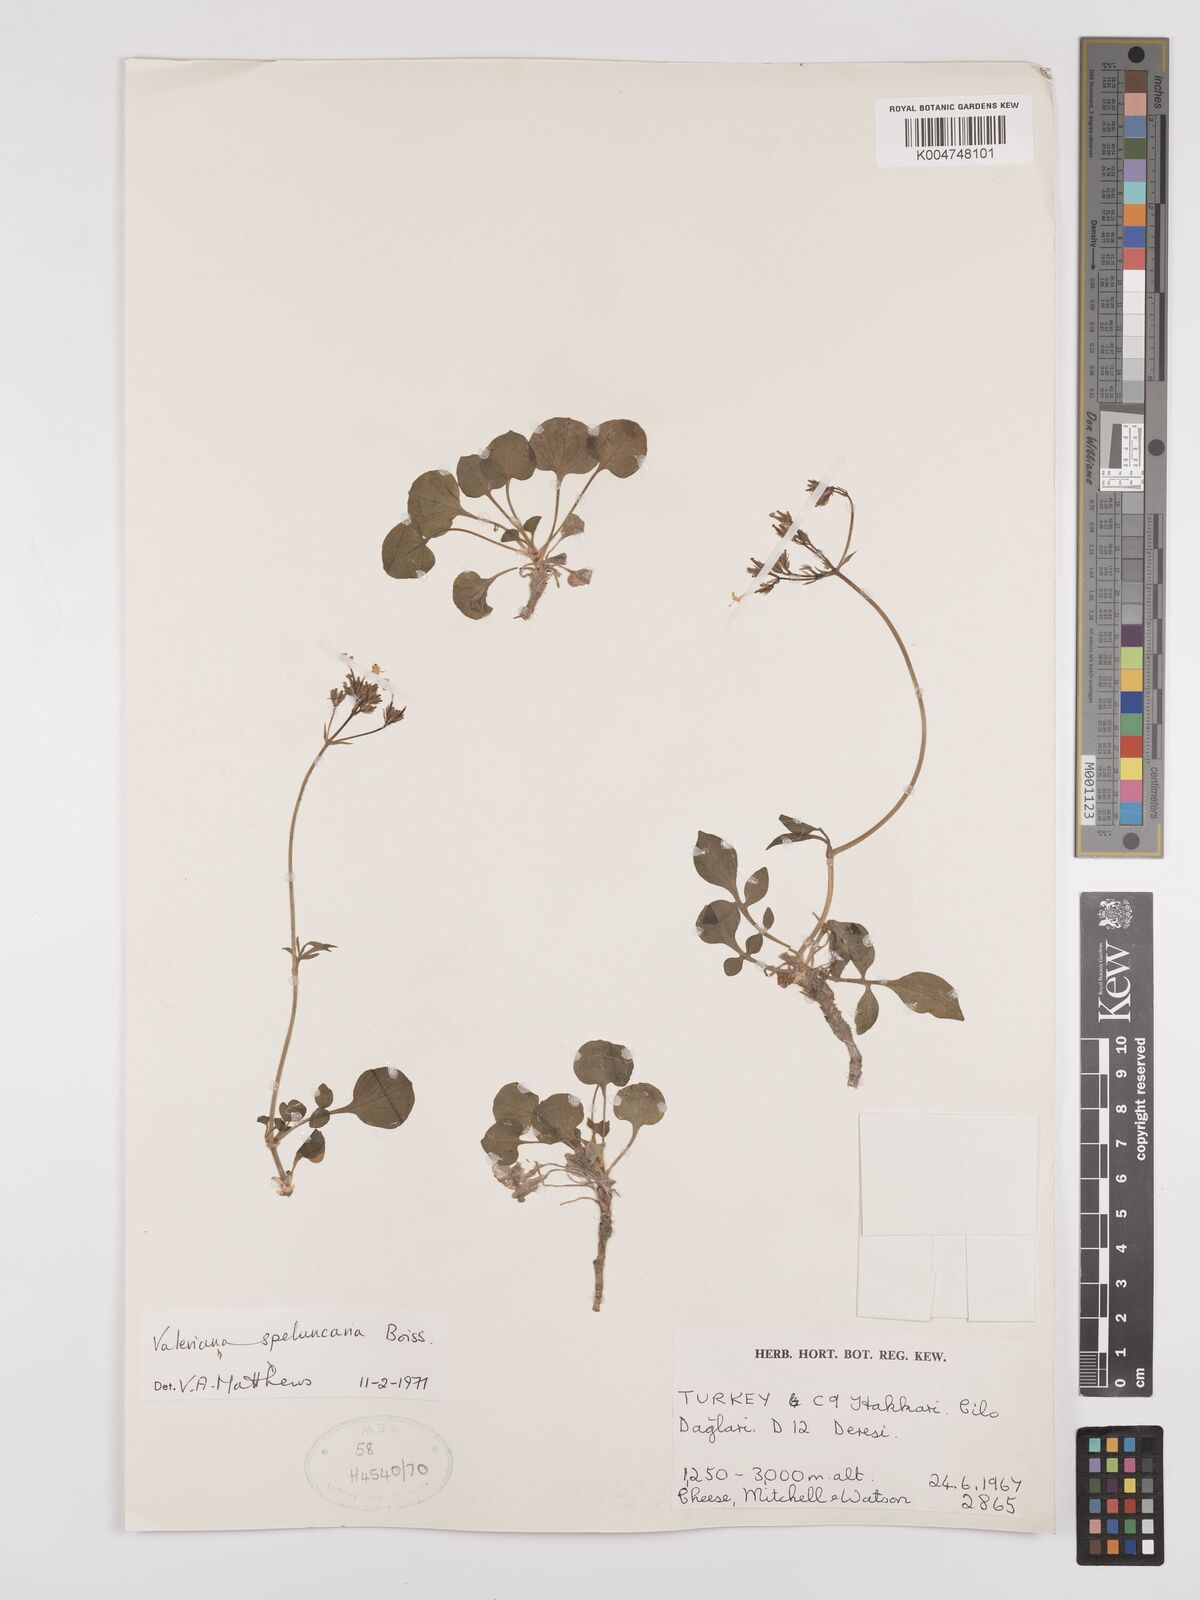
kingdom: Plantae
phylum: Tracheophyta
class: Magnoliopsida
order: Dipsacales
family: Caprifoliaceae
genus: Valeriana
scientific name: Valeriana petrophila
